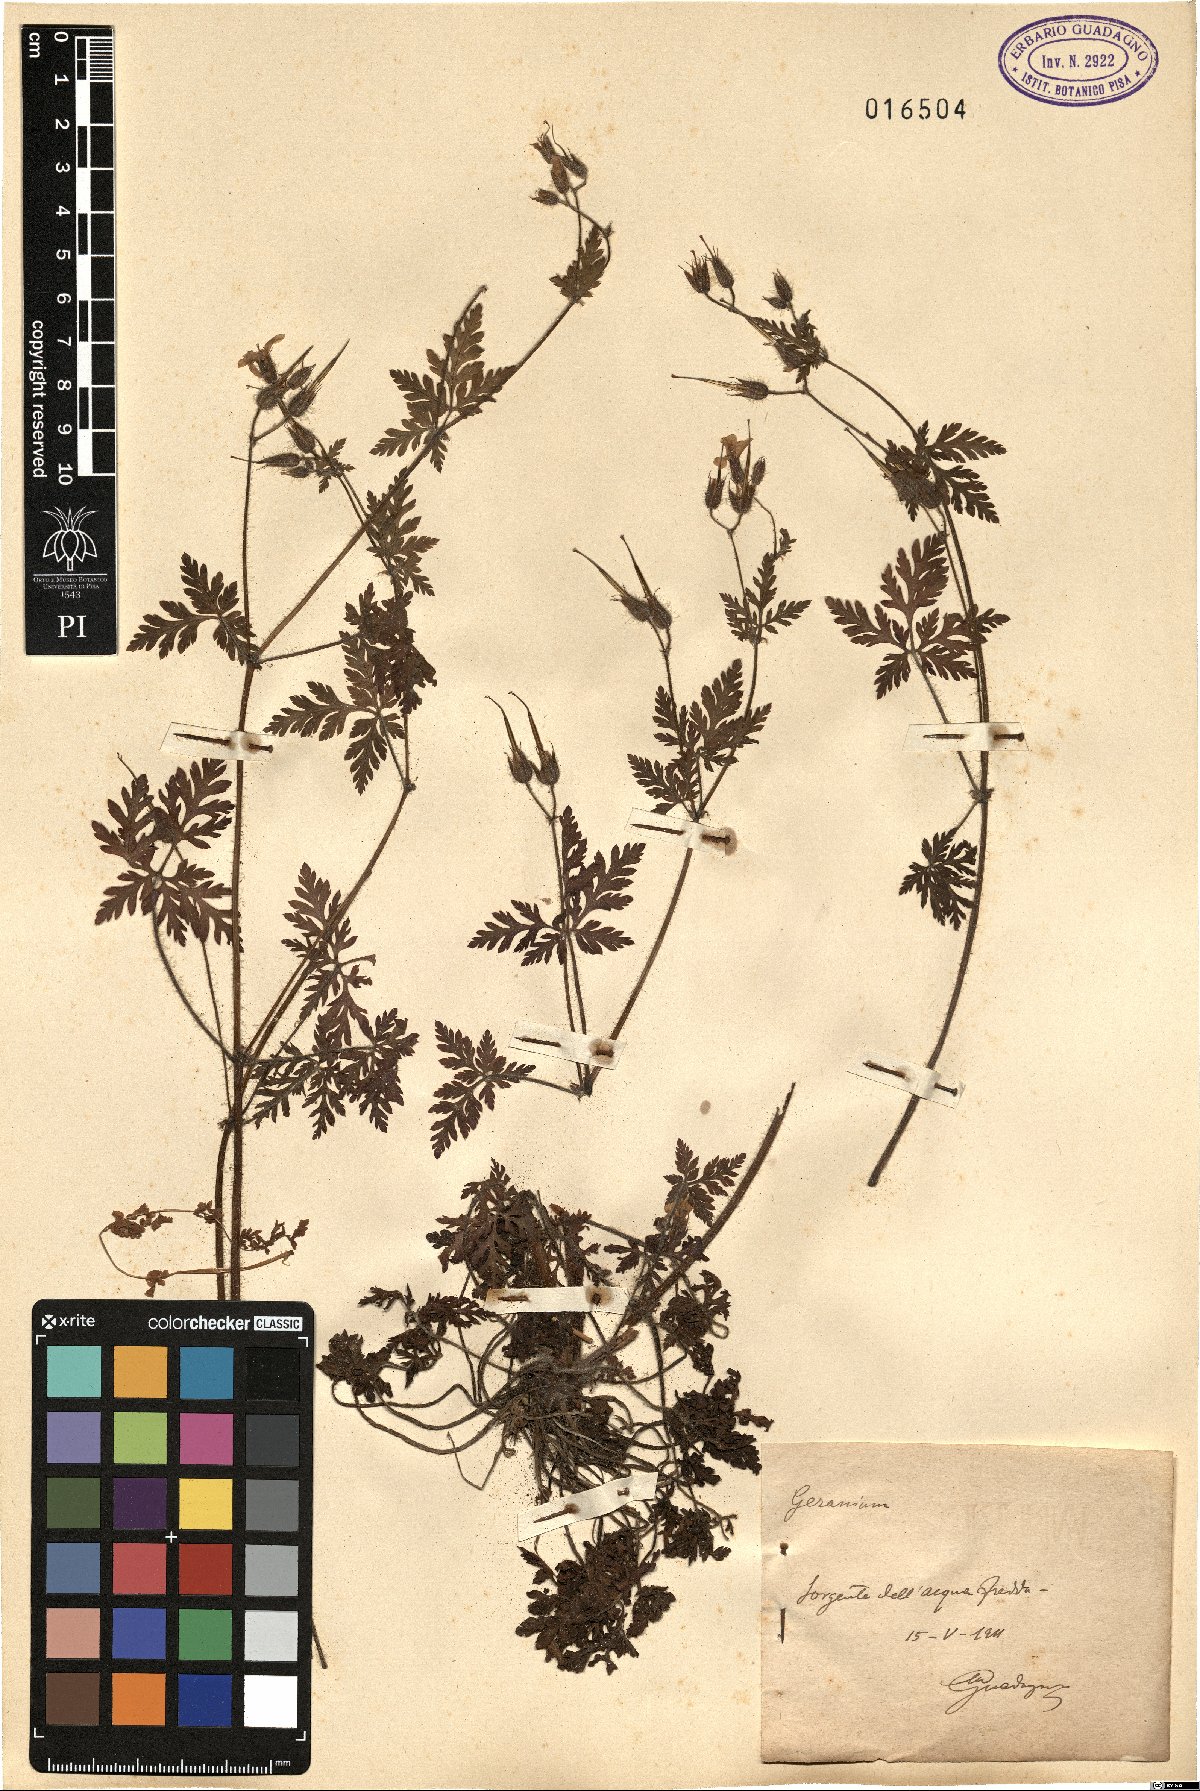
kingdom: Plantae
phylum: Tracheophyta
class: Magnoliopsida
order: Geraniales
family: Geraniaceae
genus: Geranium
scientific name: Geranium
